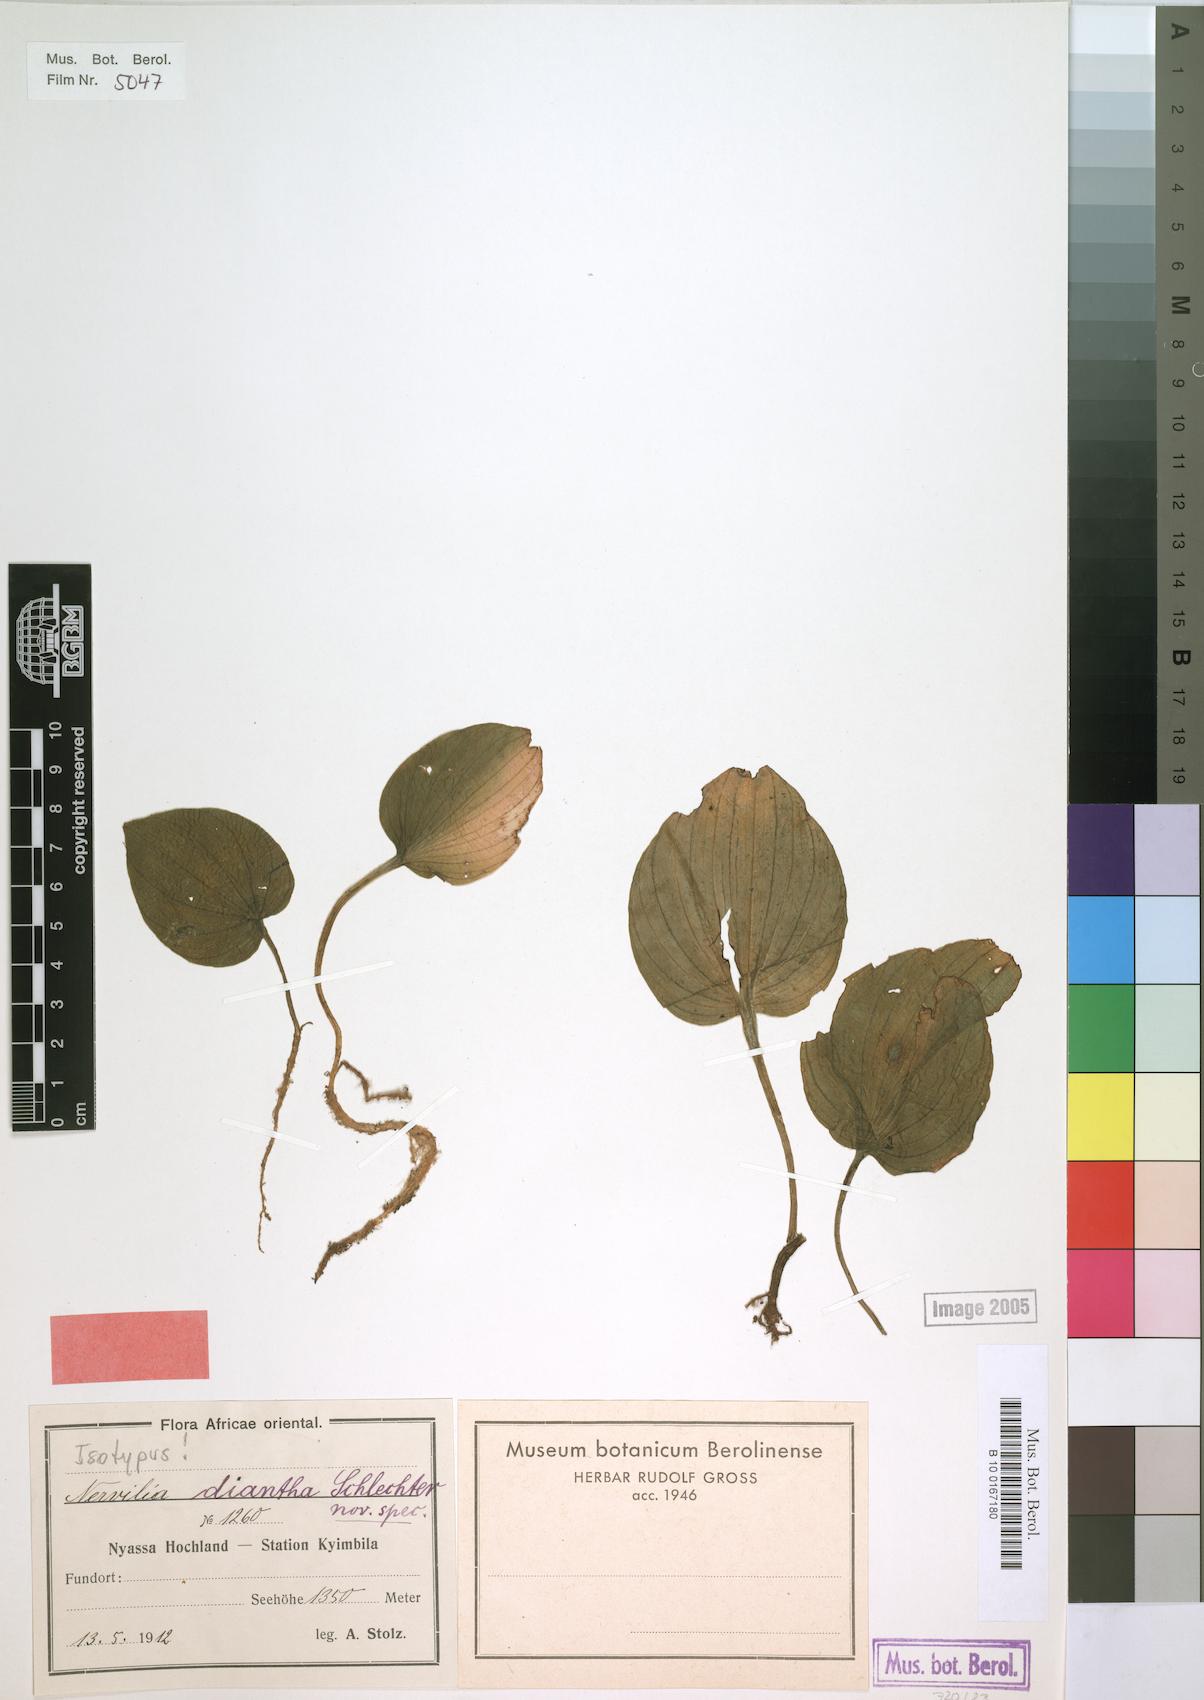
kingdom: Plantae
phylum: Tracheophyta
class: Liliopsida
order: Asparagales
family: Orchidaceae
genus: Nervilia
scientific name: Nervilia kotschyi
